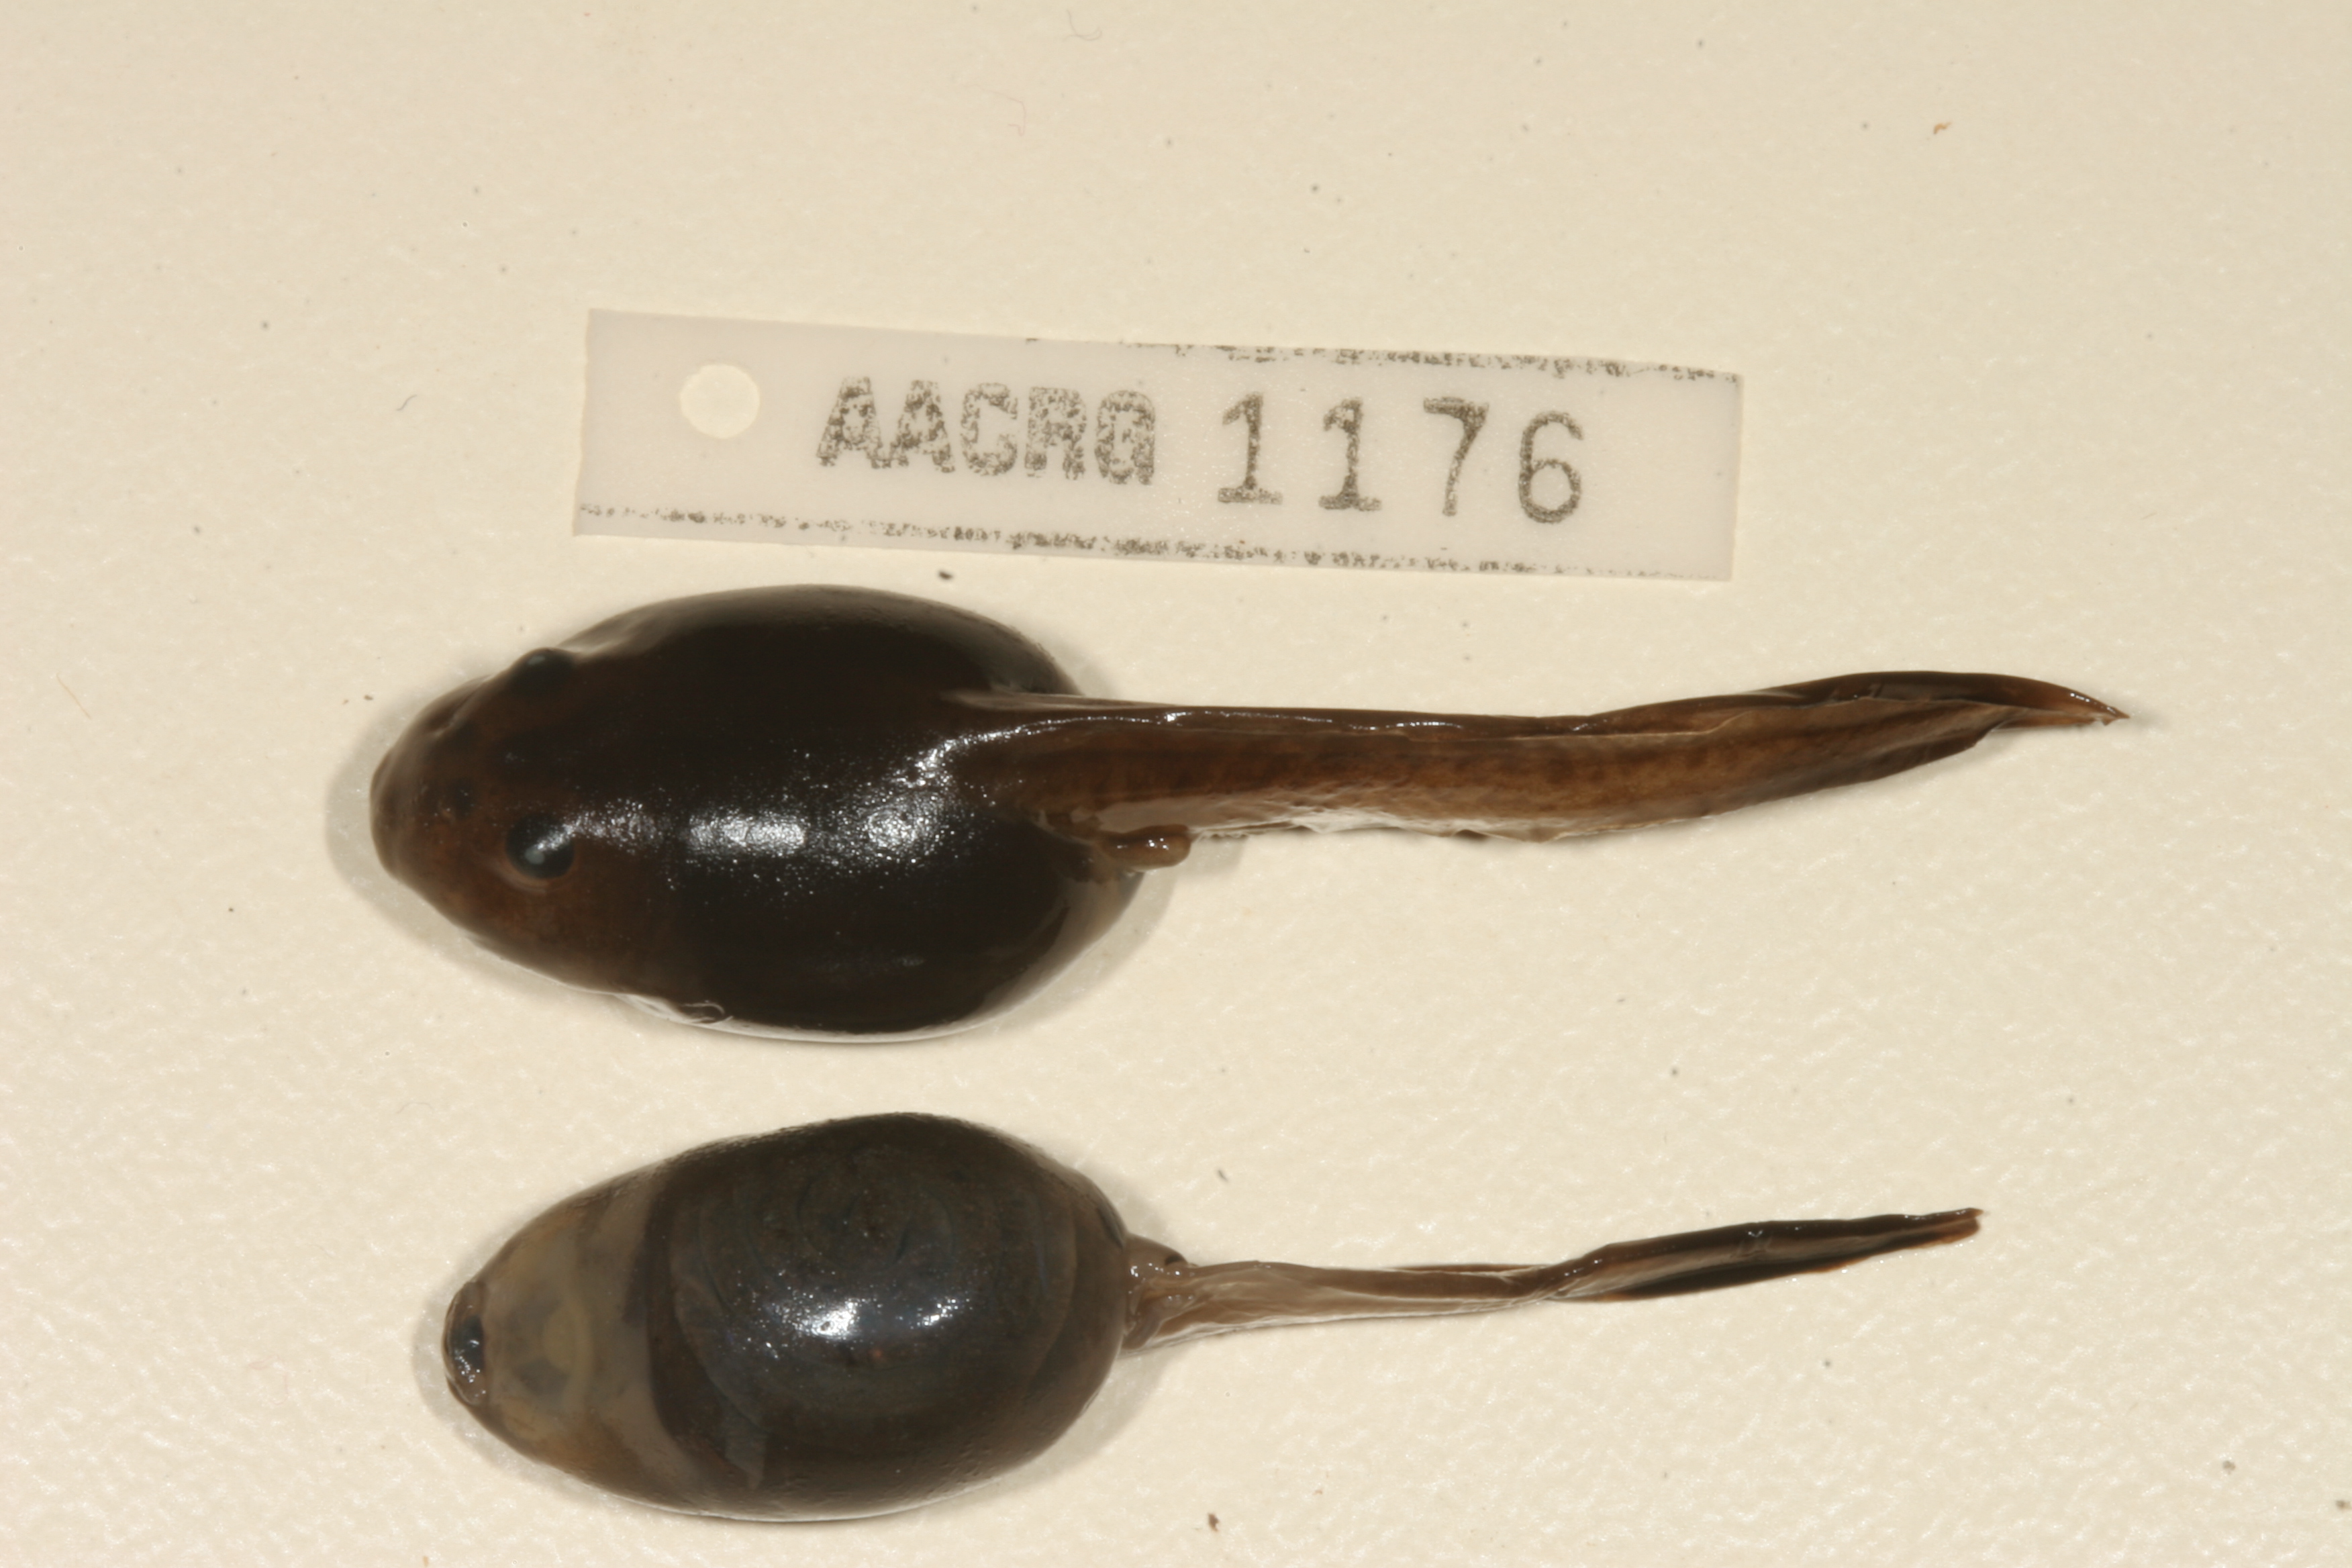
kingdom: Animalia
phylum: Chordata
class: Amphibia
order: Anura
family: Pyxicephalidae
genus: Strongylopus
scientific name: Strongylopus grayii
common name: Gray's stream frog
